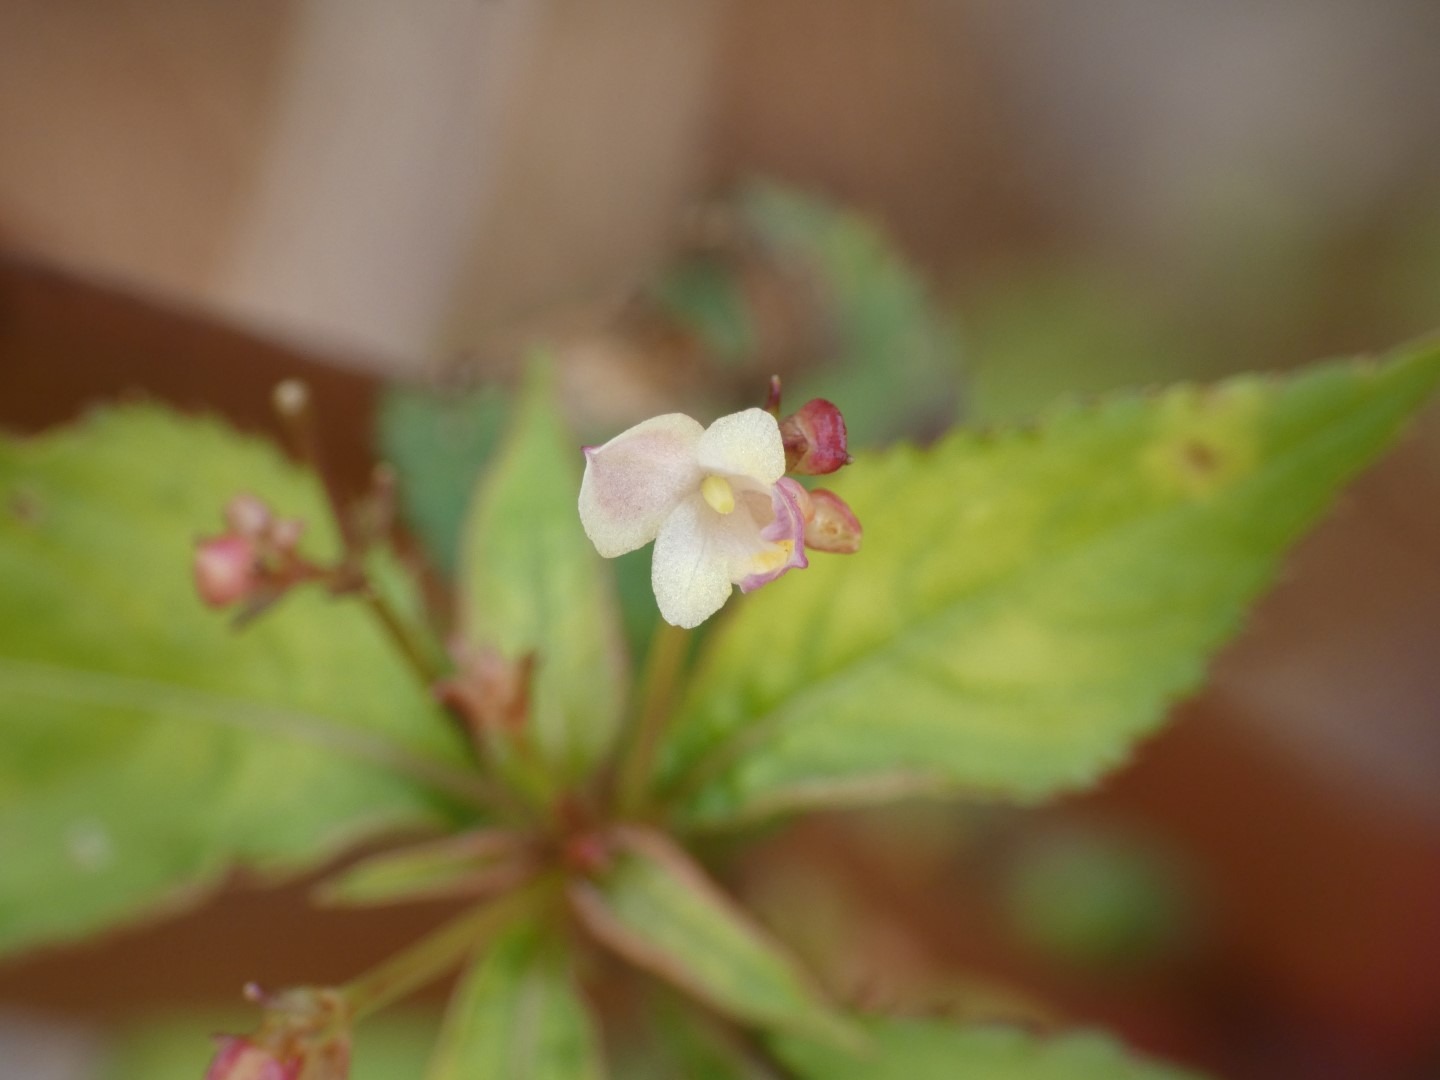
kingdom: Plantae
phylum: Tracheophyta
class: Magnoliopsida
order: Ericales
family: Balsaminaceae
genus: Impatiens
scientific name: Impatiens parviflora
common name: Småblomstret balsamin
